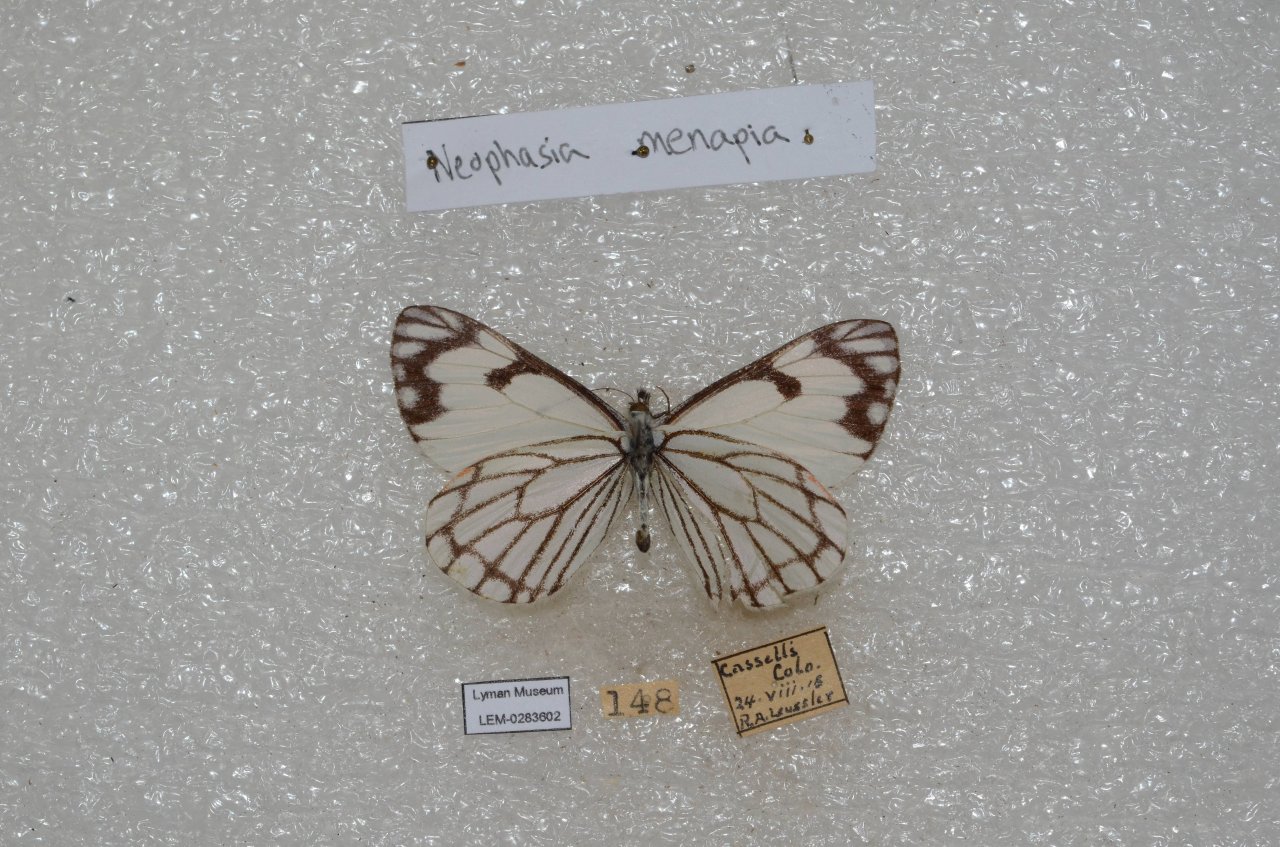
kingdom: Animalia
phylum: Arthropoda
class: Insecta
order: Lepidoptera
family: Pieridae
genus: Neophasia
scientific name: Neophasia menapia
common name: Pine White
